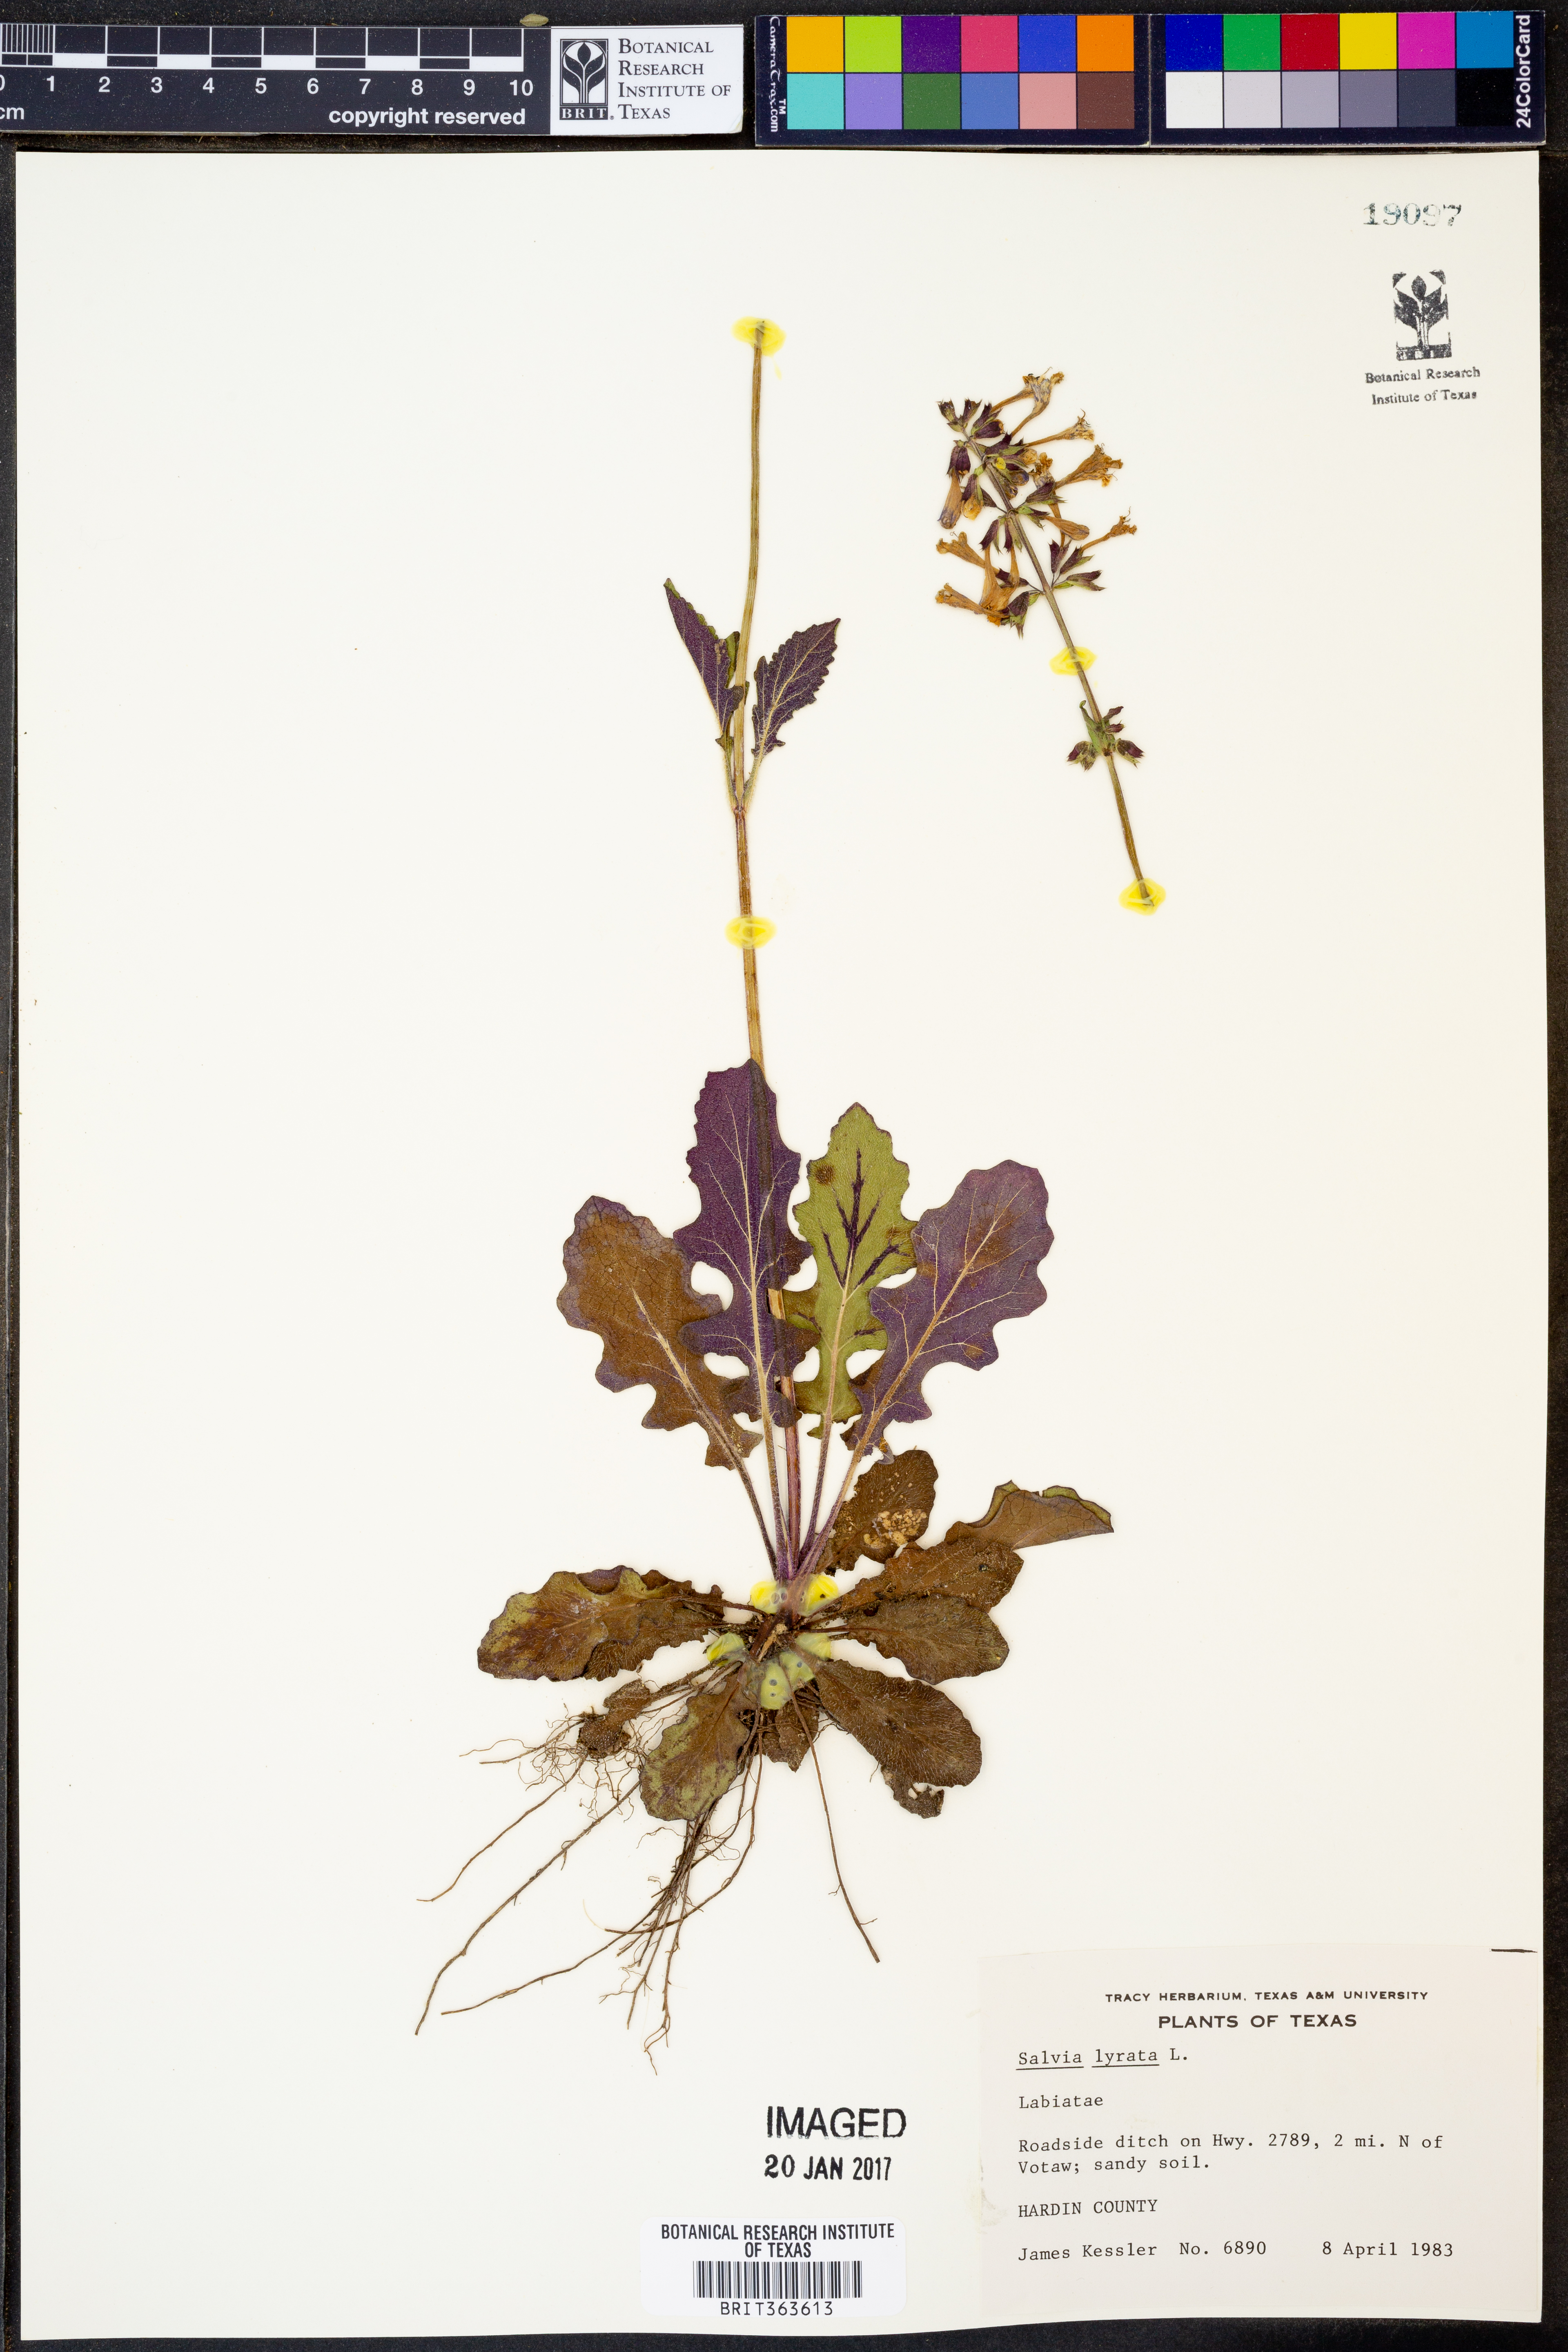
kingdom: Plantae
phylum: Tracheophyta
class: Magnoliopsida
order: Lamiales
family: Lamiaceae
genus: Salvia
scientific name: Salvia lyrata
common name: Cancerweed
